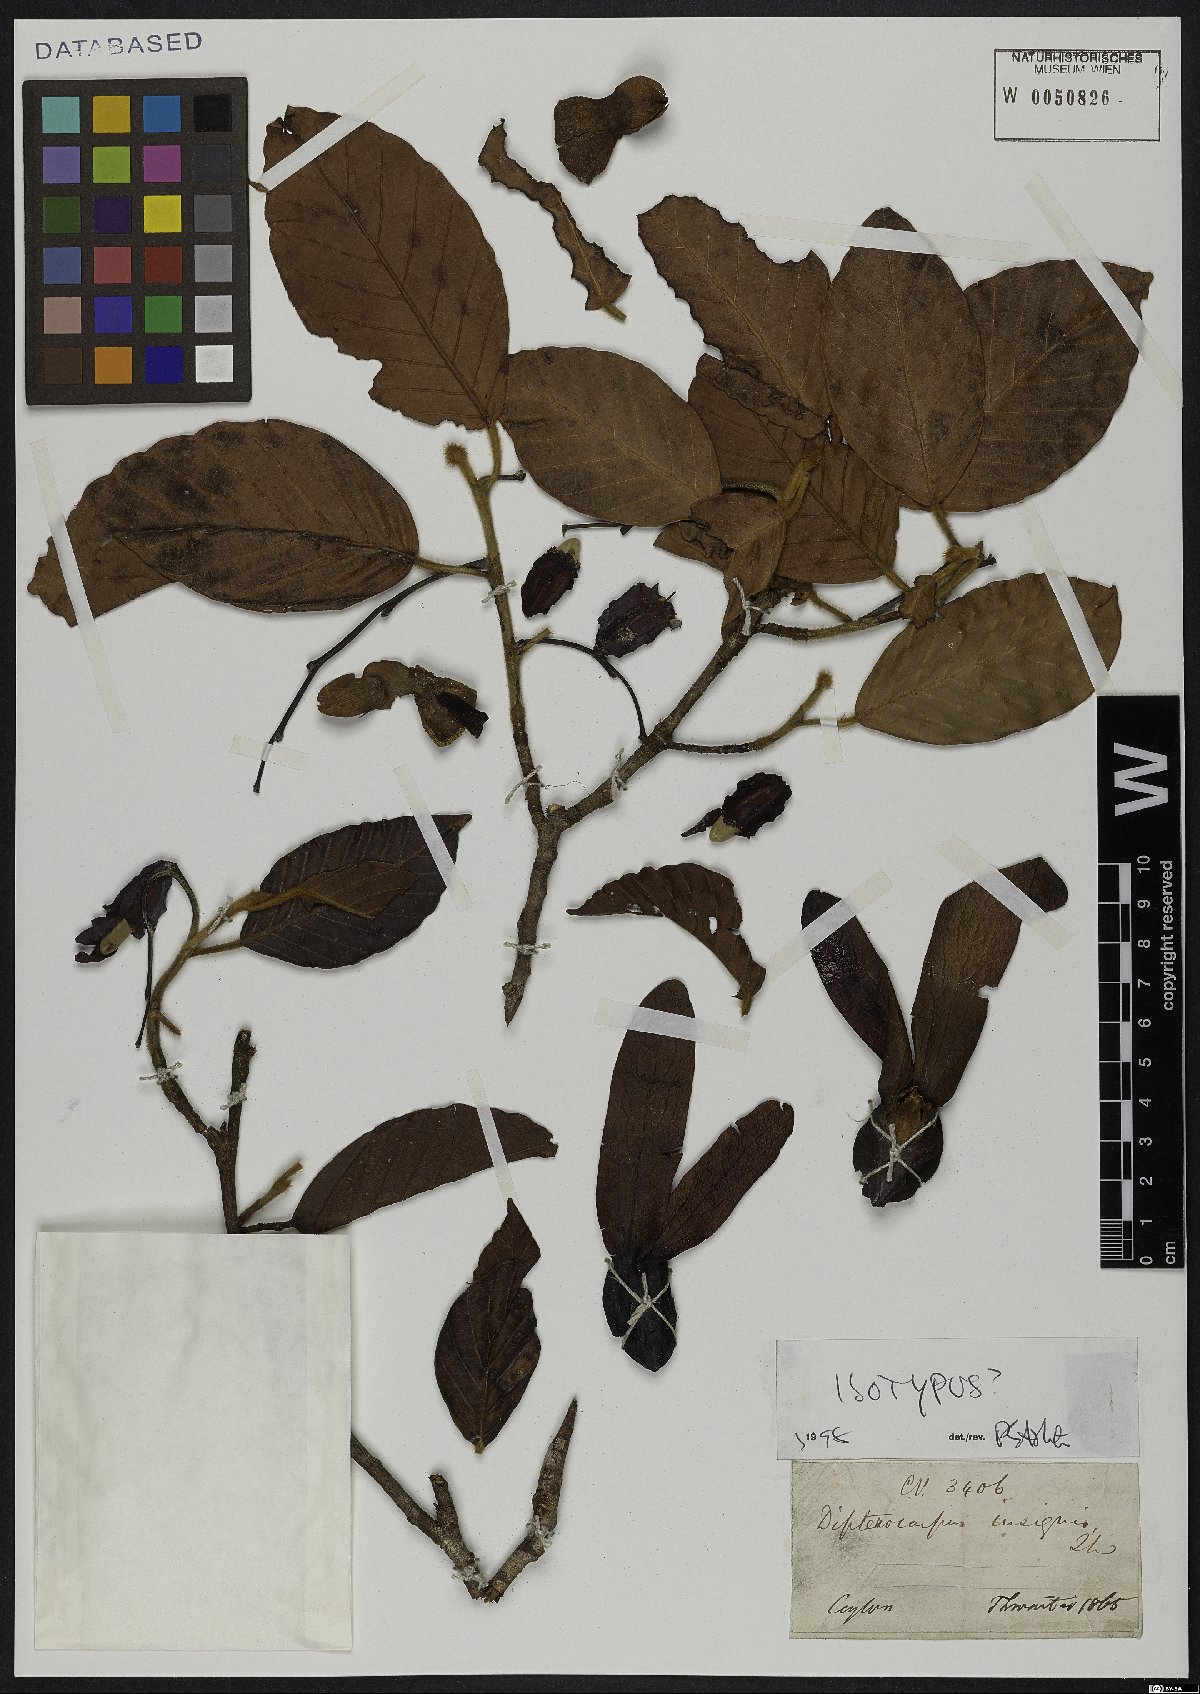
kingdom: Plantae
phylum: Tracheophyta
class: Magnoliopsida
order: Malvales
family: Dipterocarpaceae
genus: Dipterocarpus
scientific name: Dipterocarpus insignis
